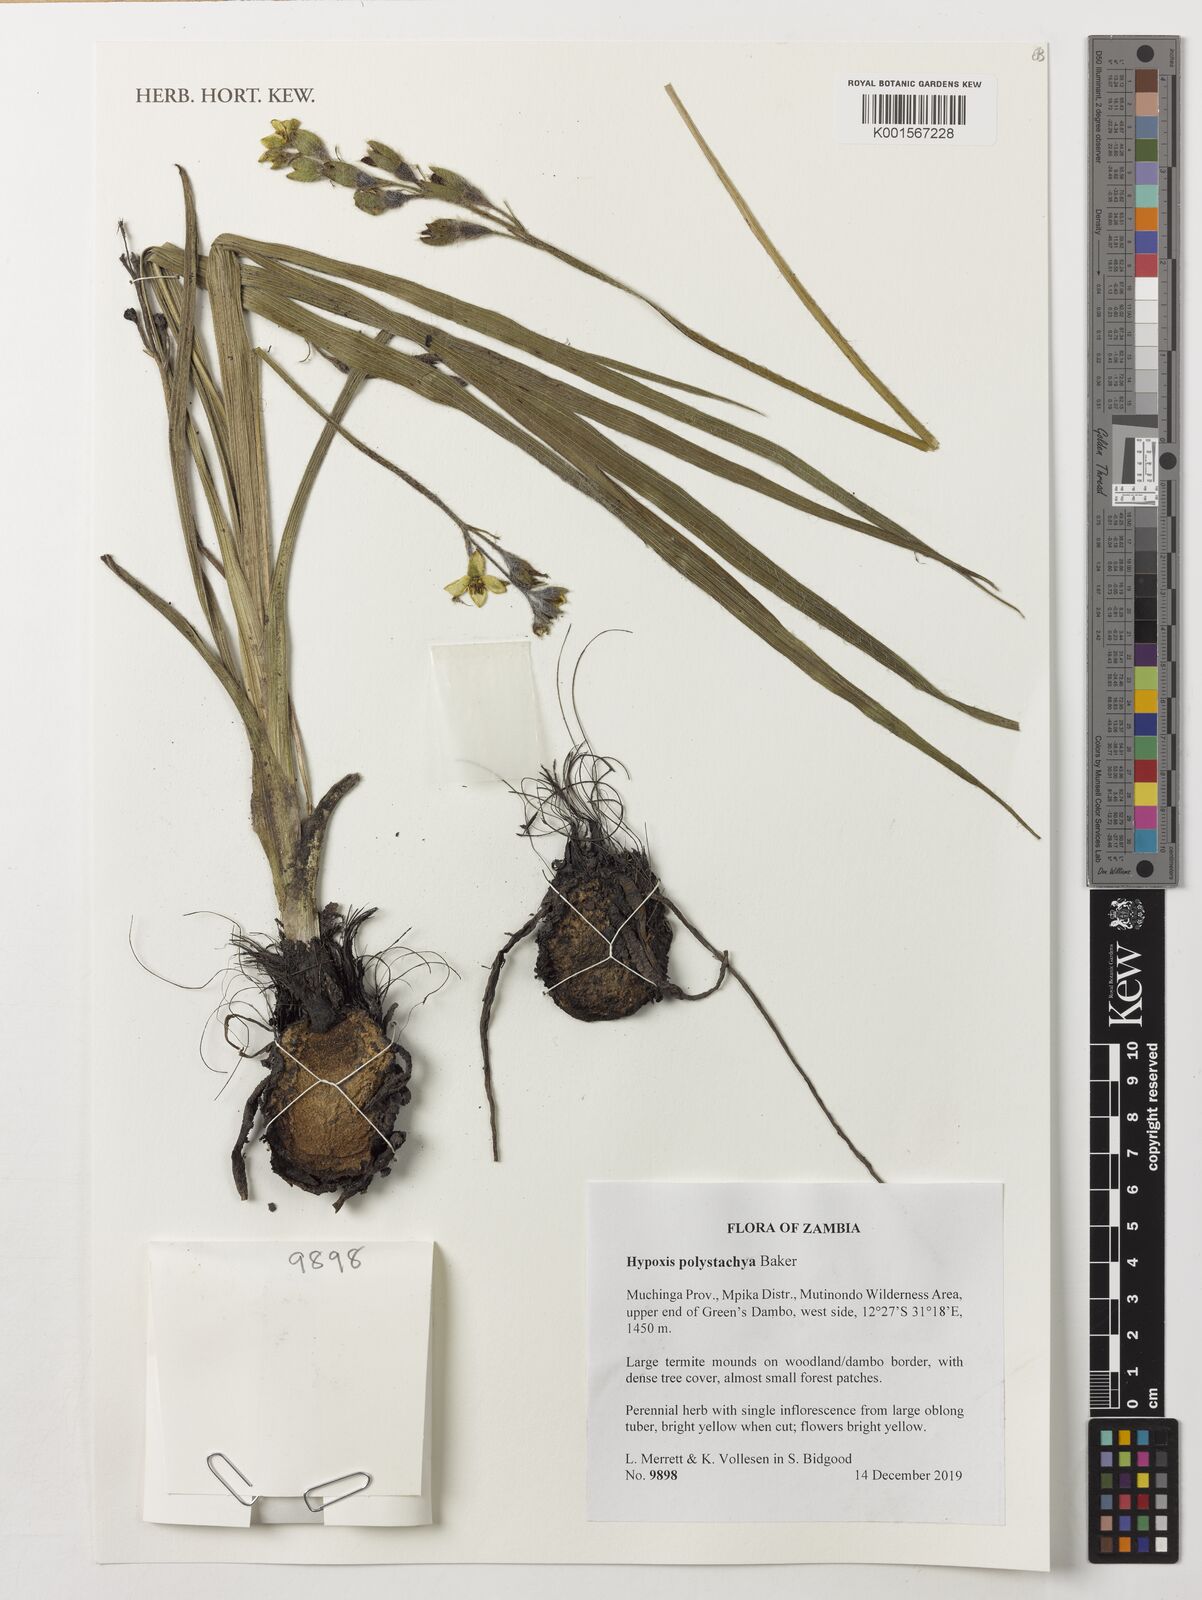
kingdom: Plantae
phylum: Tracheophyta
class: Liliopsida
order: Asparagales
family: Hypoxidaceae
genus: Hypoxis
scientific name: Hypoxis polystachya
